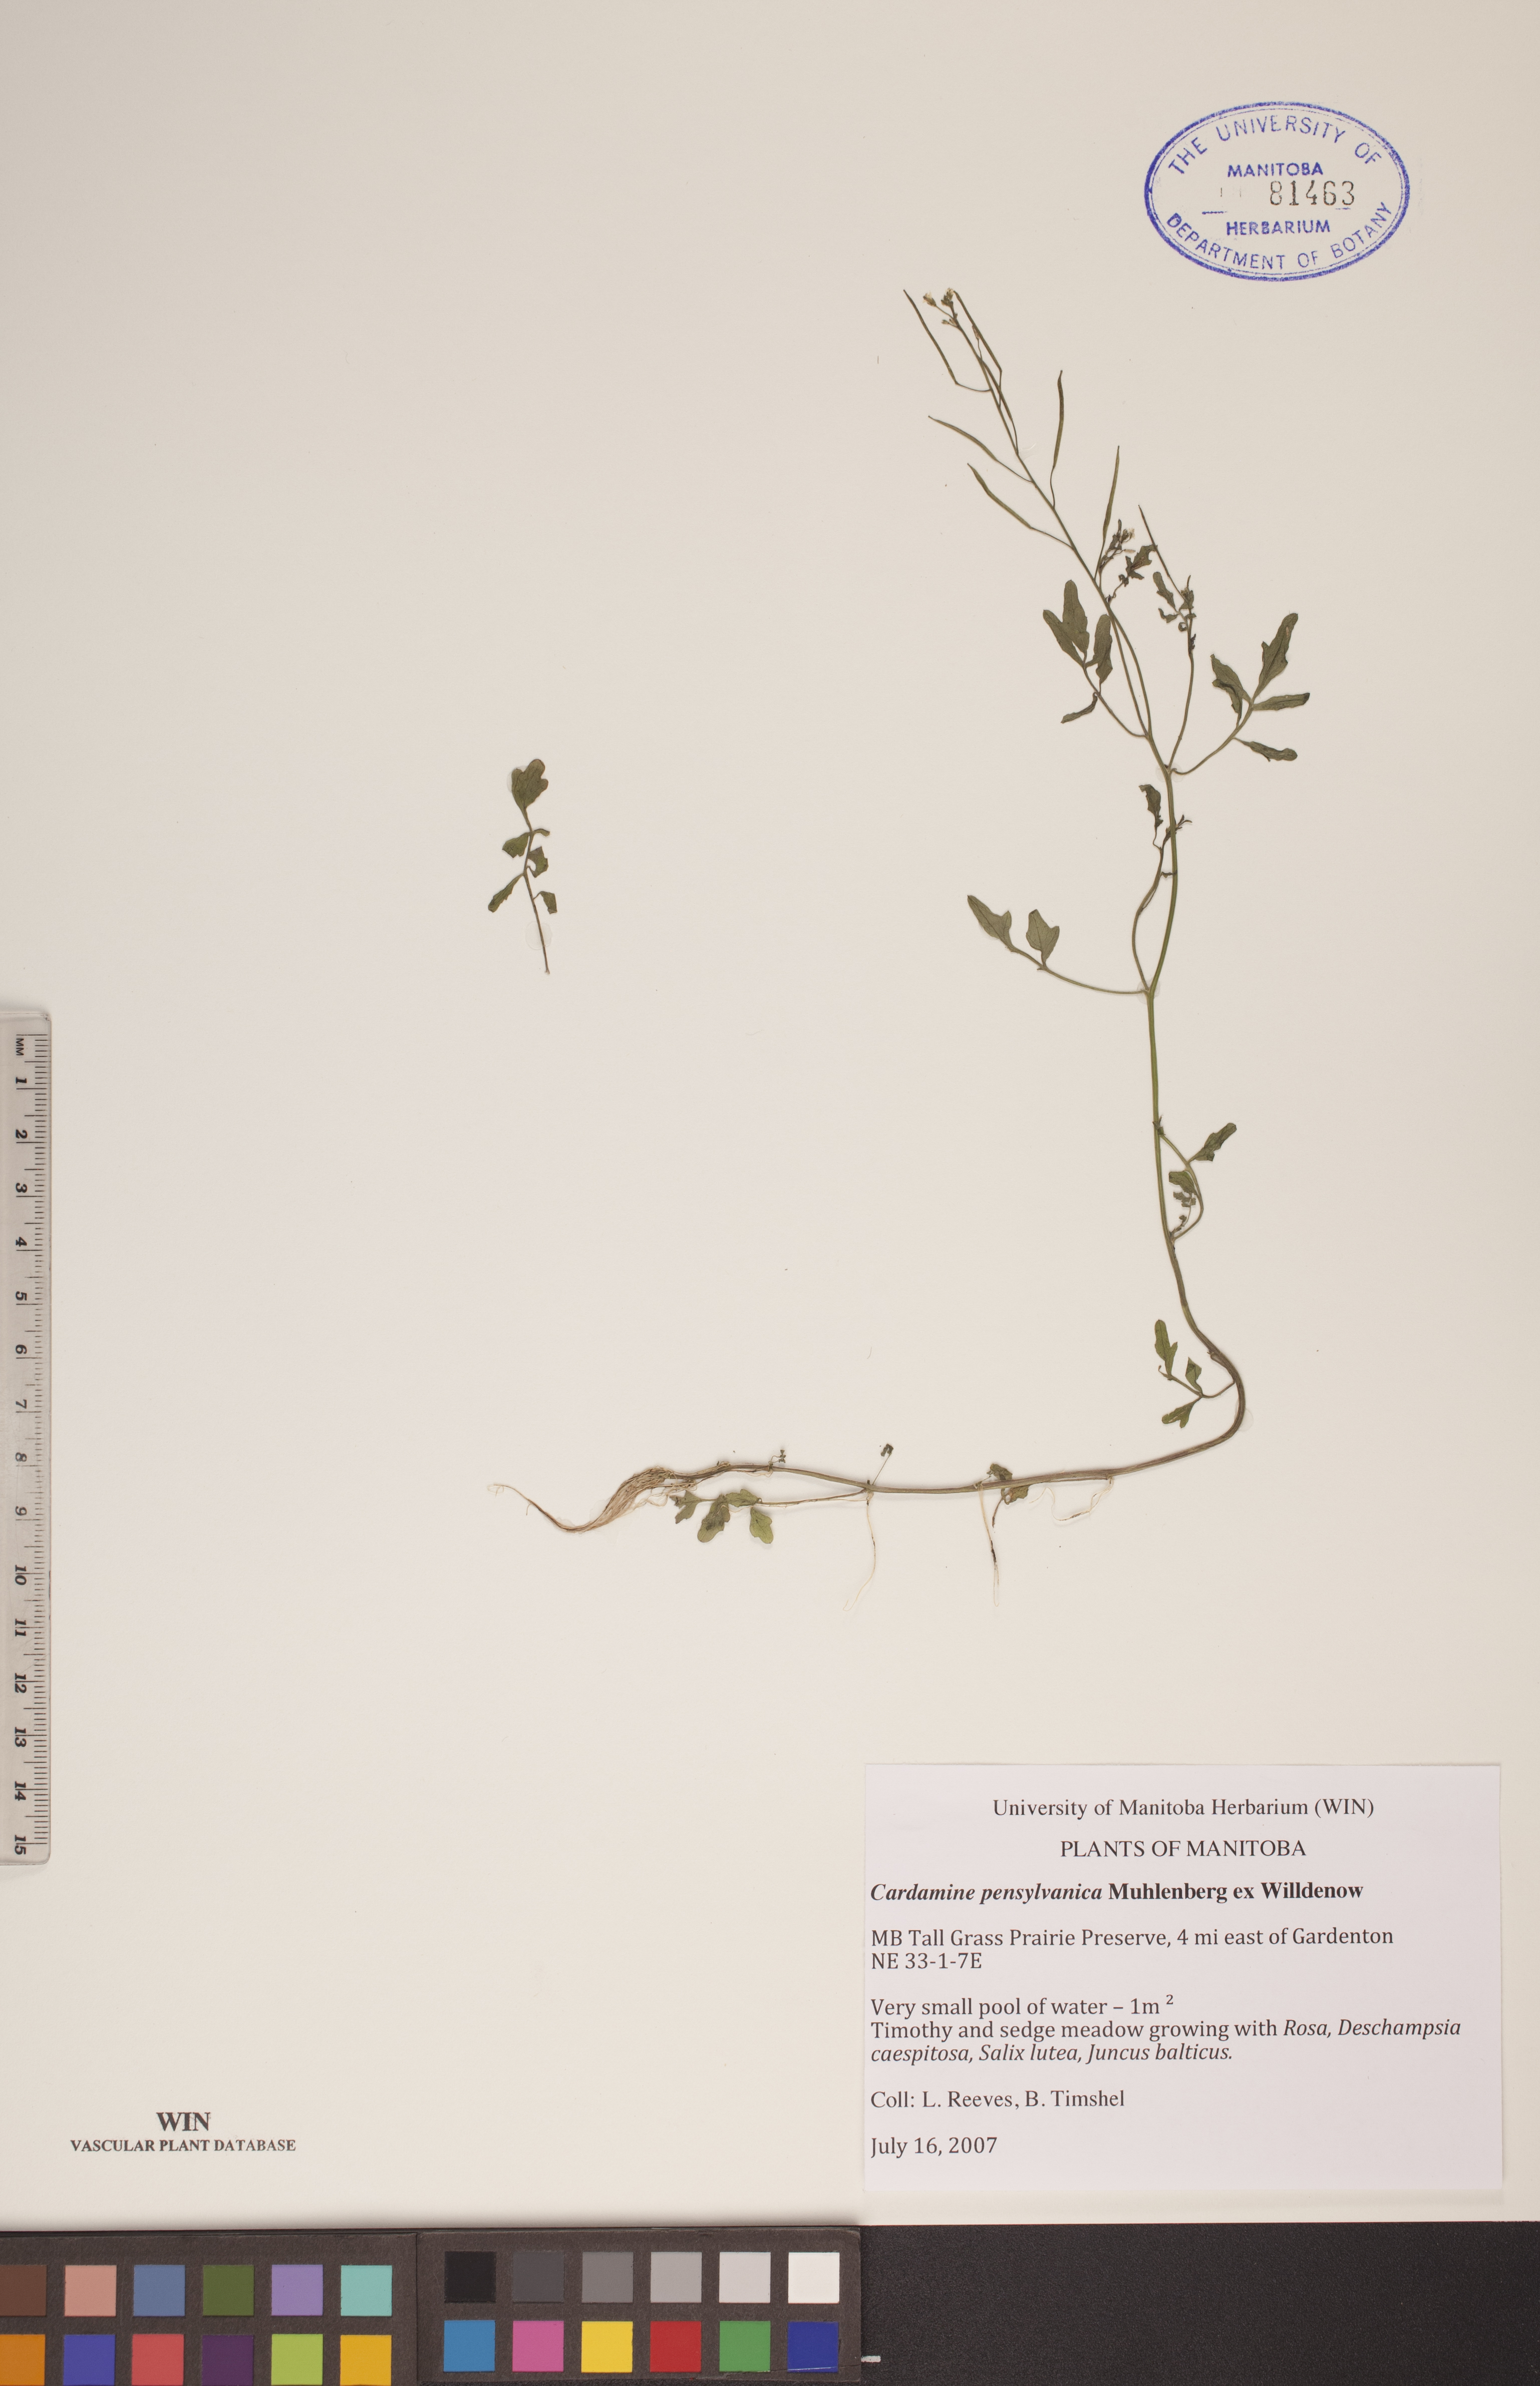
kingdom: Plantae
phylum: Tracheophyta
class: Magnoliopsida
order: Brassicales
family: Brassicaceae
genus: Cardamine
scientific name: Cardamine pensylvanica
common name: Pennsylvania bittercress
